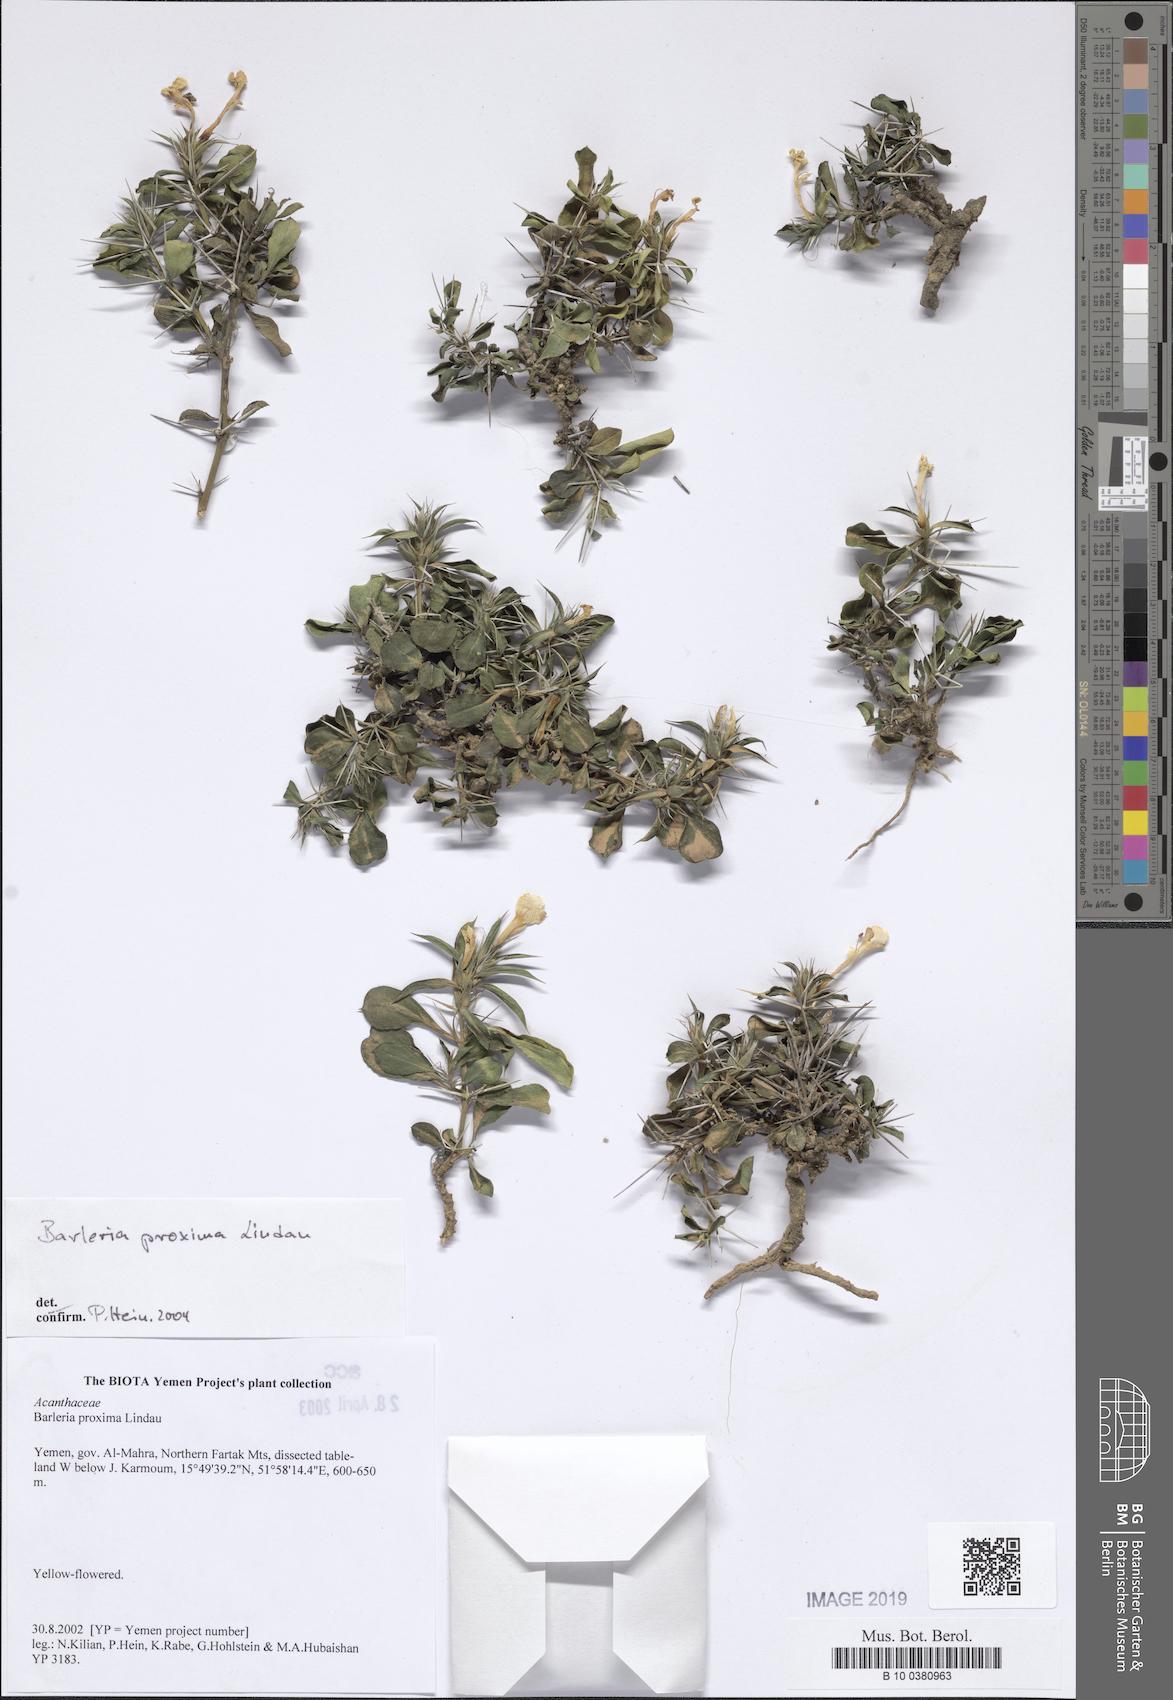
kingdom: Plantae
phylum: Tracheophyta
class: Magnoliopsida
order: Lamiales
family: Acanthaceae
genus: Barleria
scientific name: Barleria proxima
